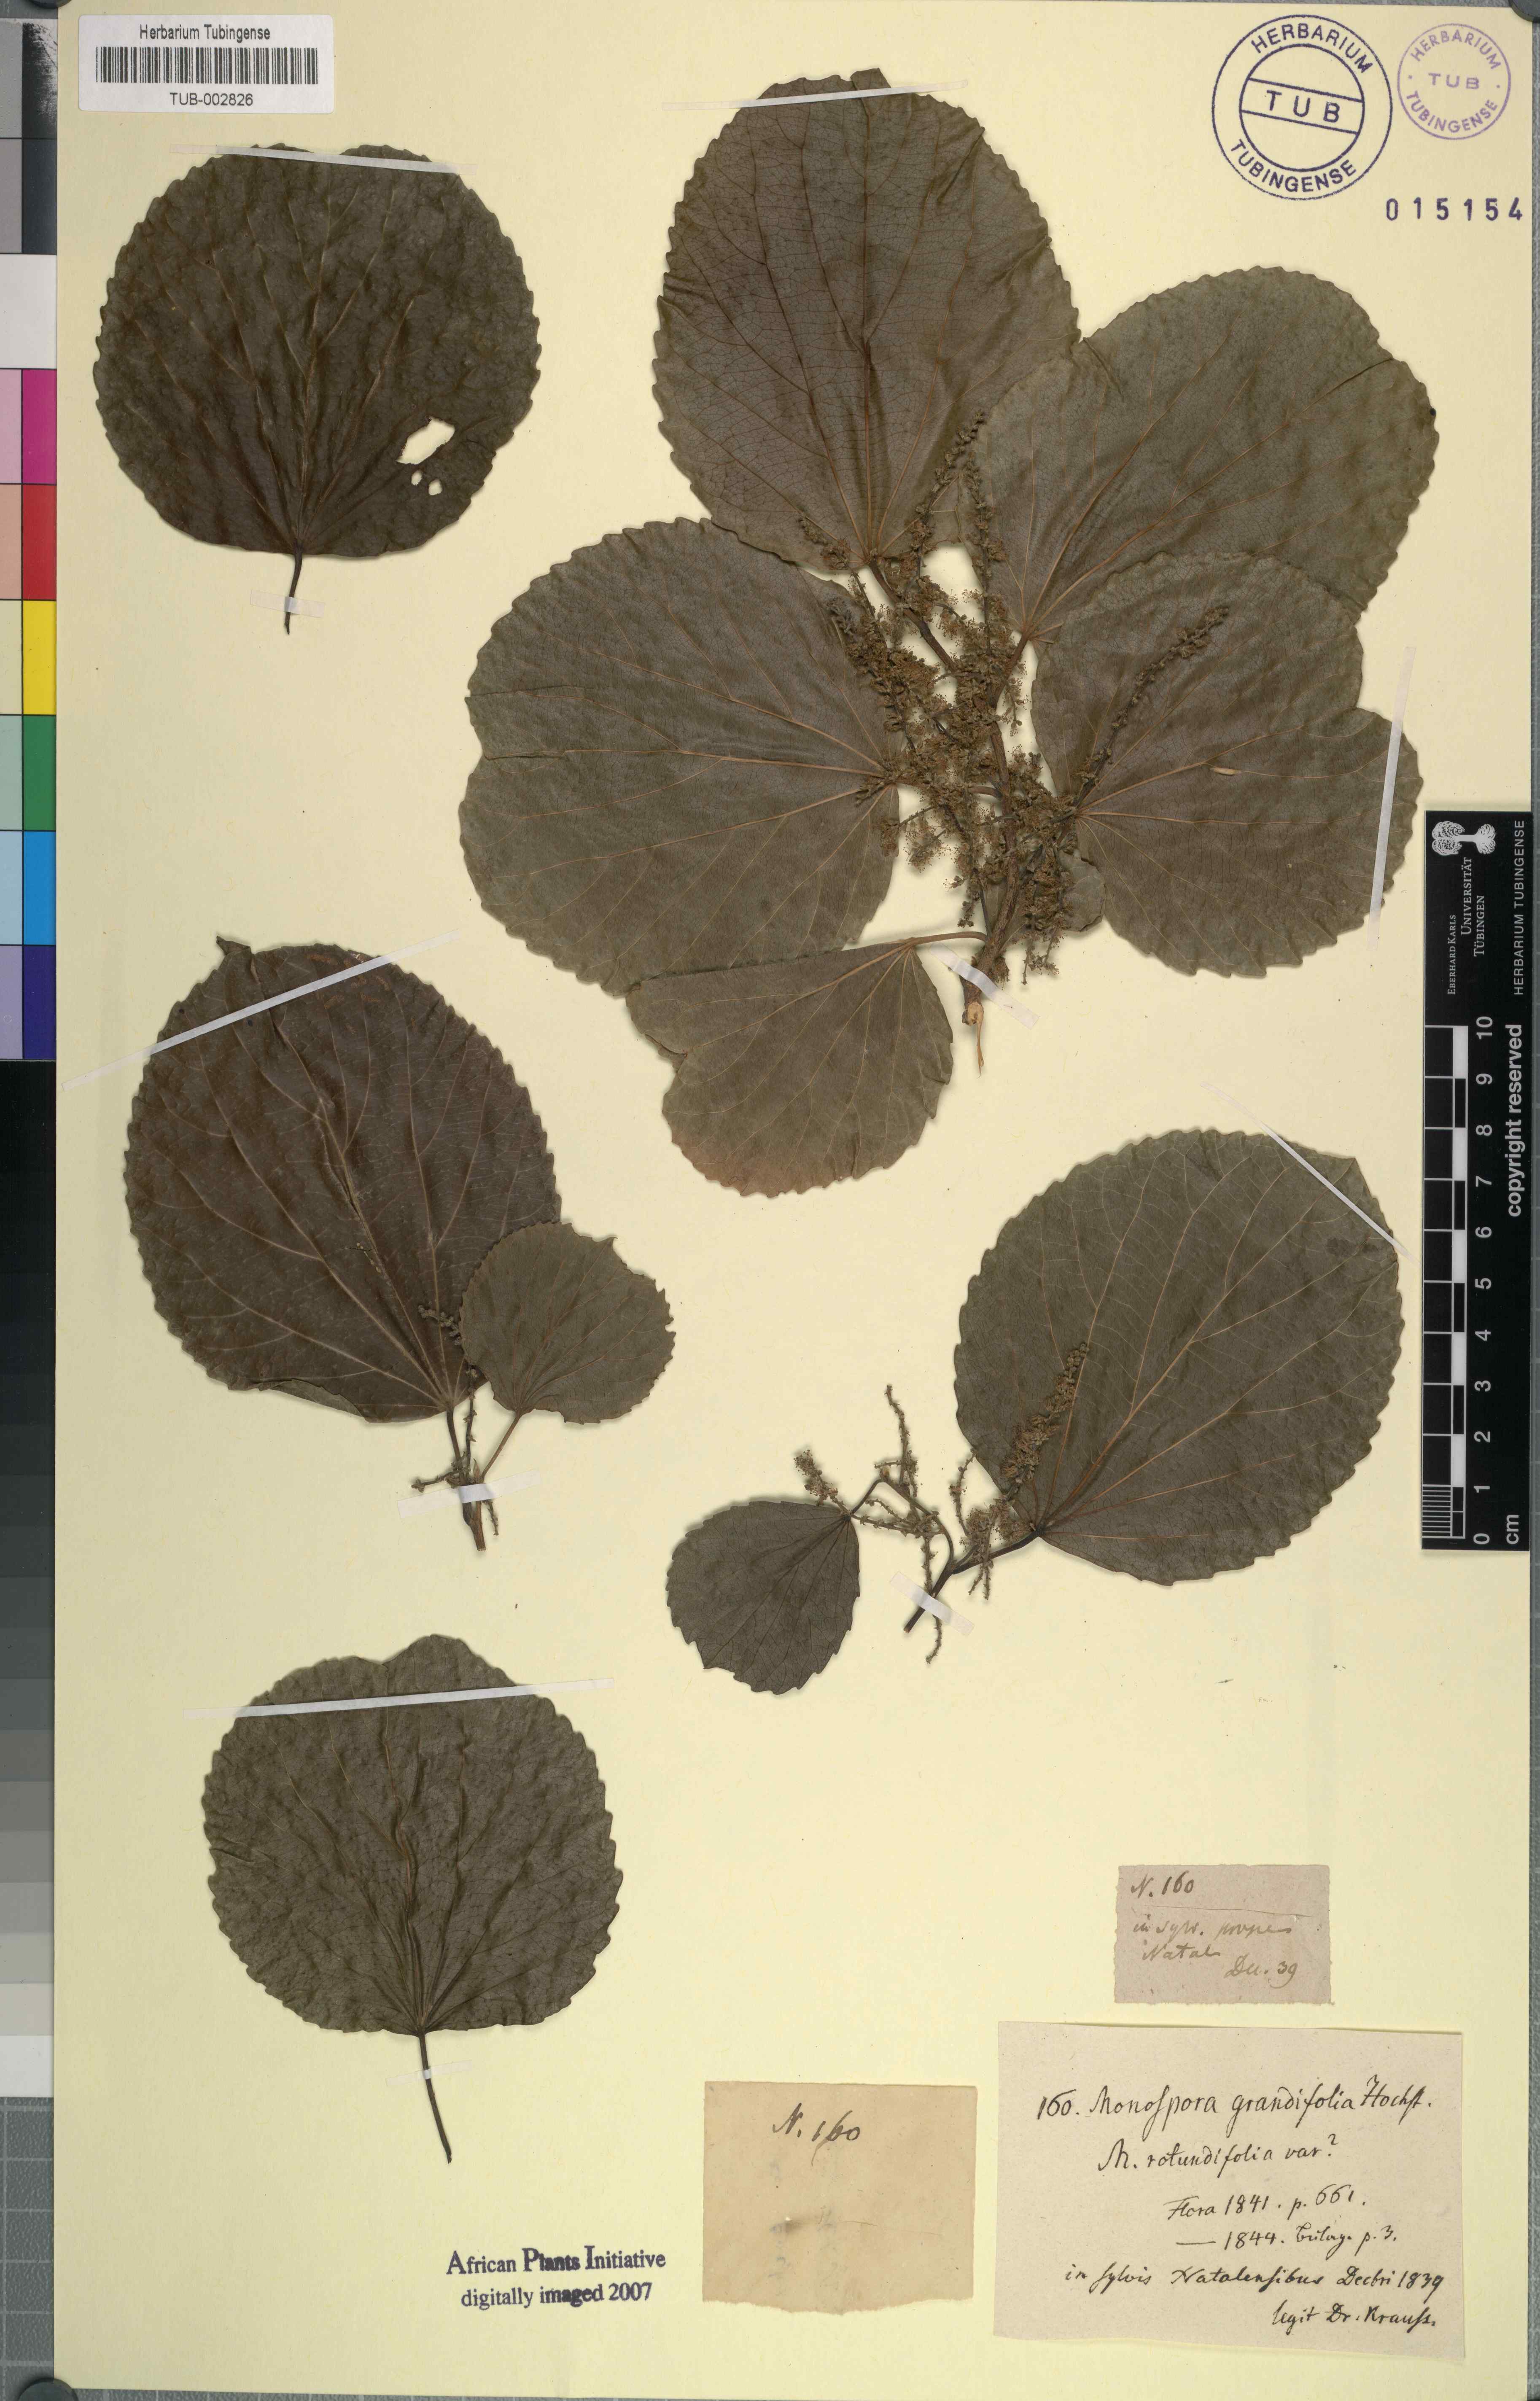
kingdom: Plantae
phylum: Tracheophyta
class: Magnoliopsida
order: Malpighiales
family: Salicaceae
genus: Trimeria
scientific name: Trimeria grandifolia
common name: Wild mulberry
